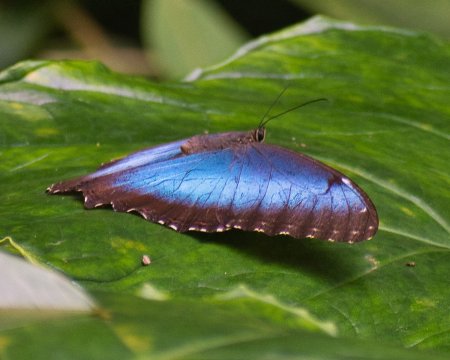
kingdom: Animalia
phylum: Arthropoda
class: Insecta
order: Lepidoptera
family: Nymphalidae
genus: Morpho
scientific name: Morpho helenor
